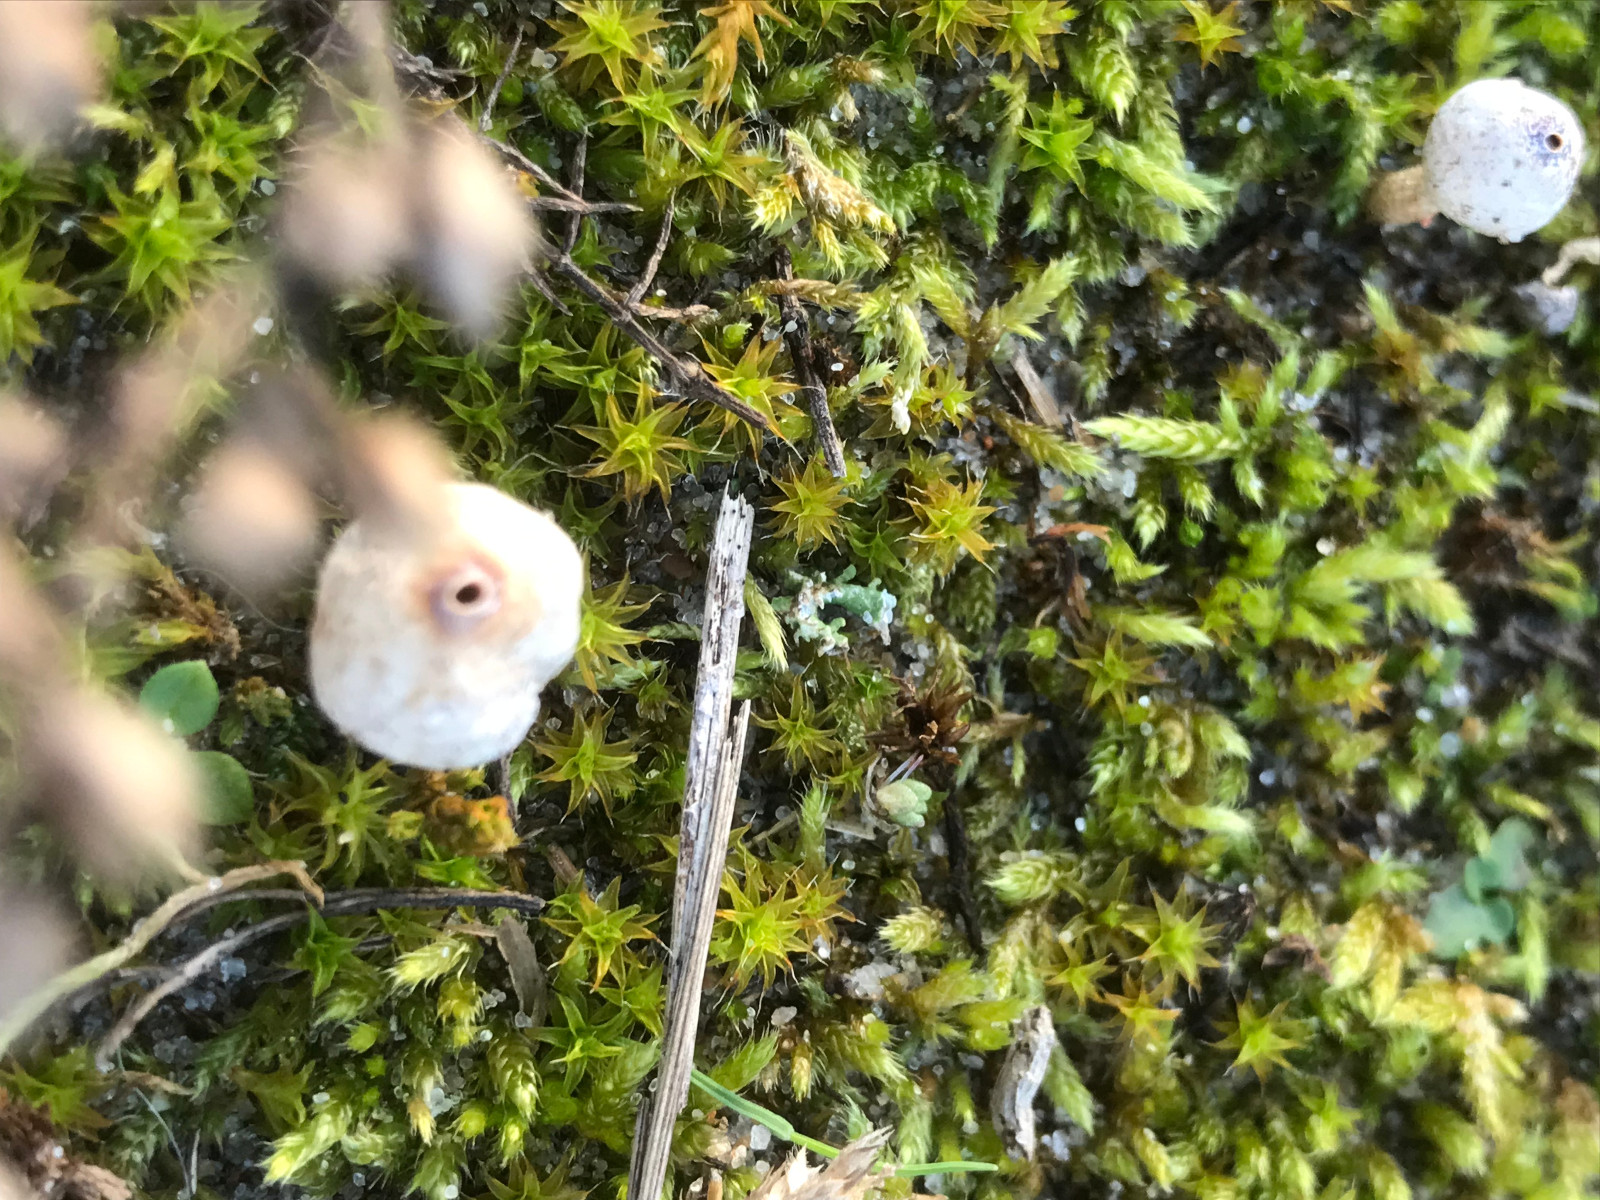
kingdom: Fungi
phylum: Basidiomycota
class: Agaricomycetes
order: Agaricales
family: Agaricaceae
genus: Tulostoma
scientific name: Tulostoma brumale
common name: vinter-stilkbovist
